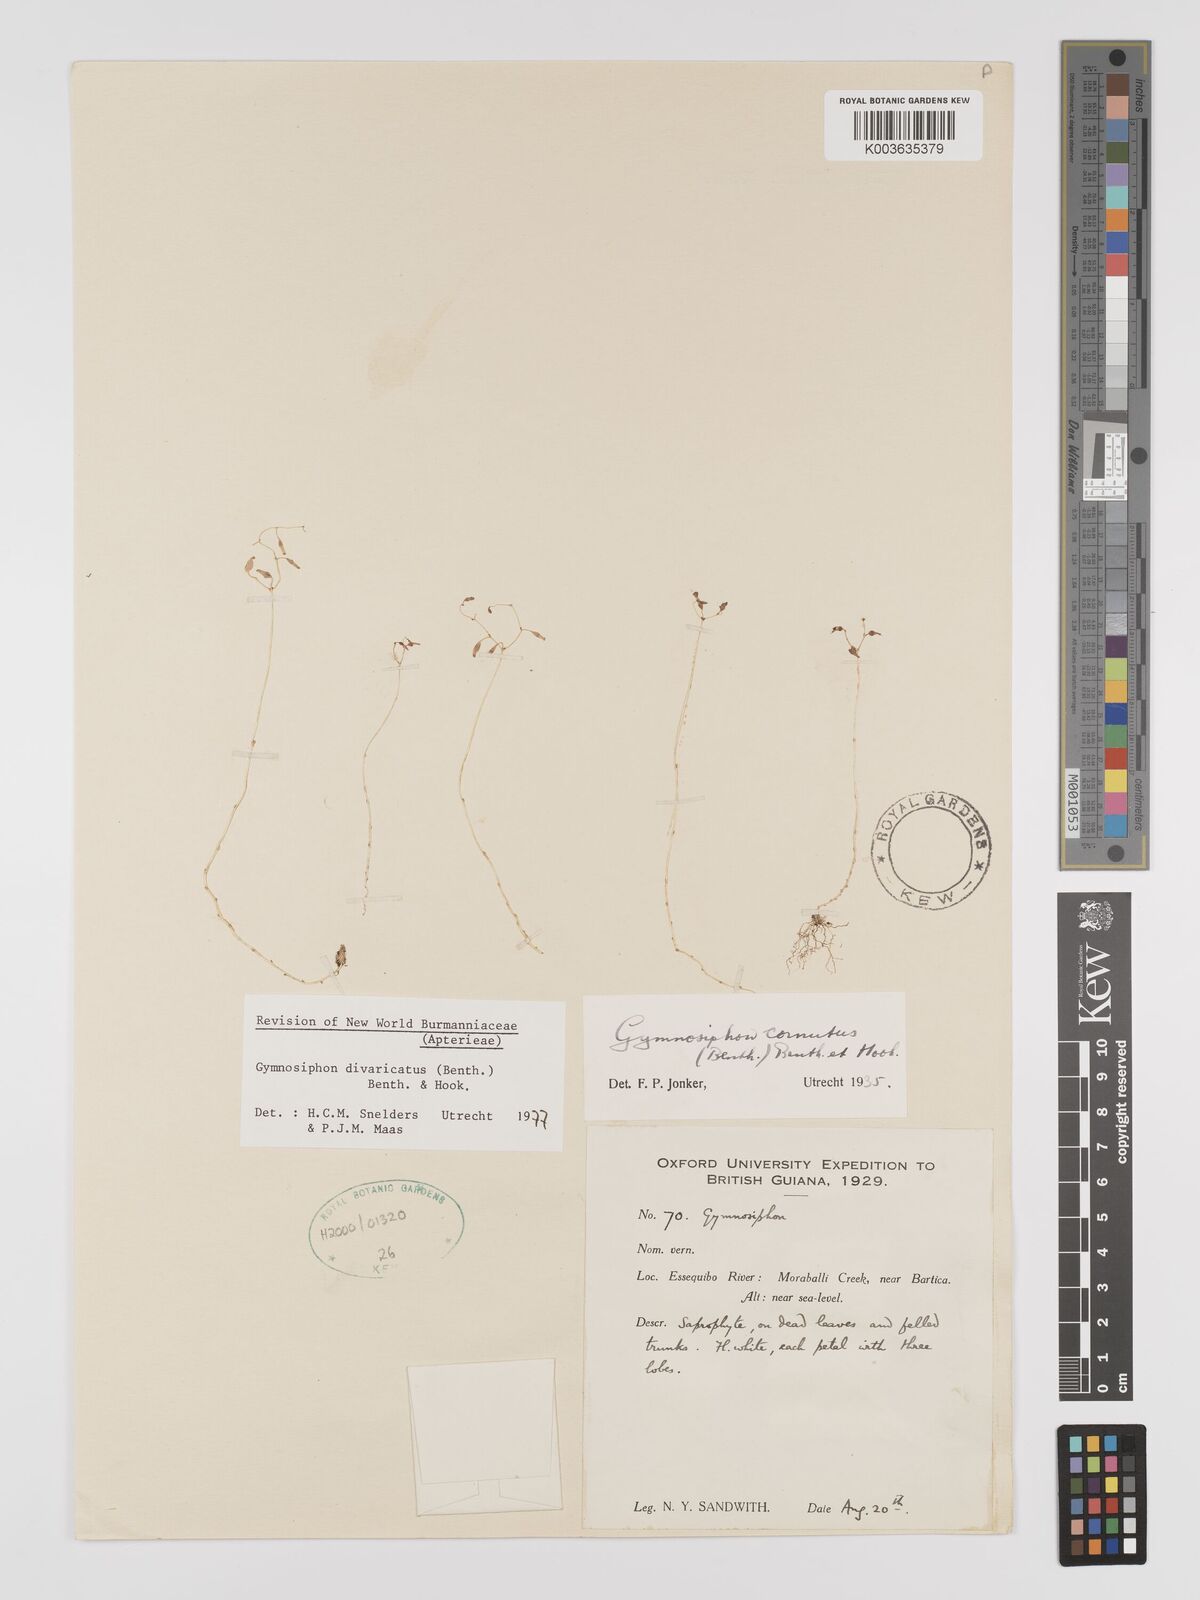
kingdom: Plantae
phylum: Tracheophyta
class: Liliopsida
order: Dioscoreales
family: Burmanniaceae
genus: Gymnosiphon
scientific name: Gymnosiphon divaricatus
